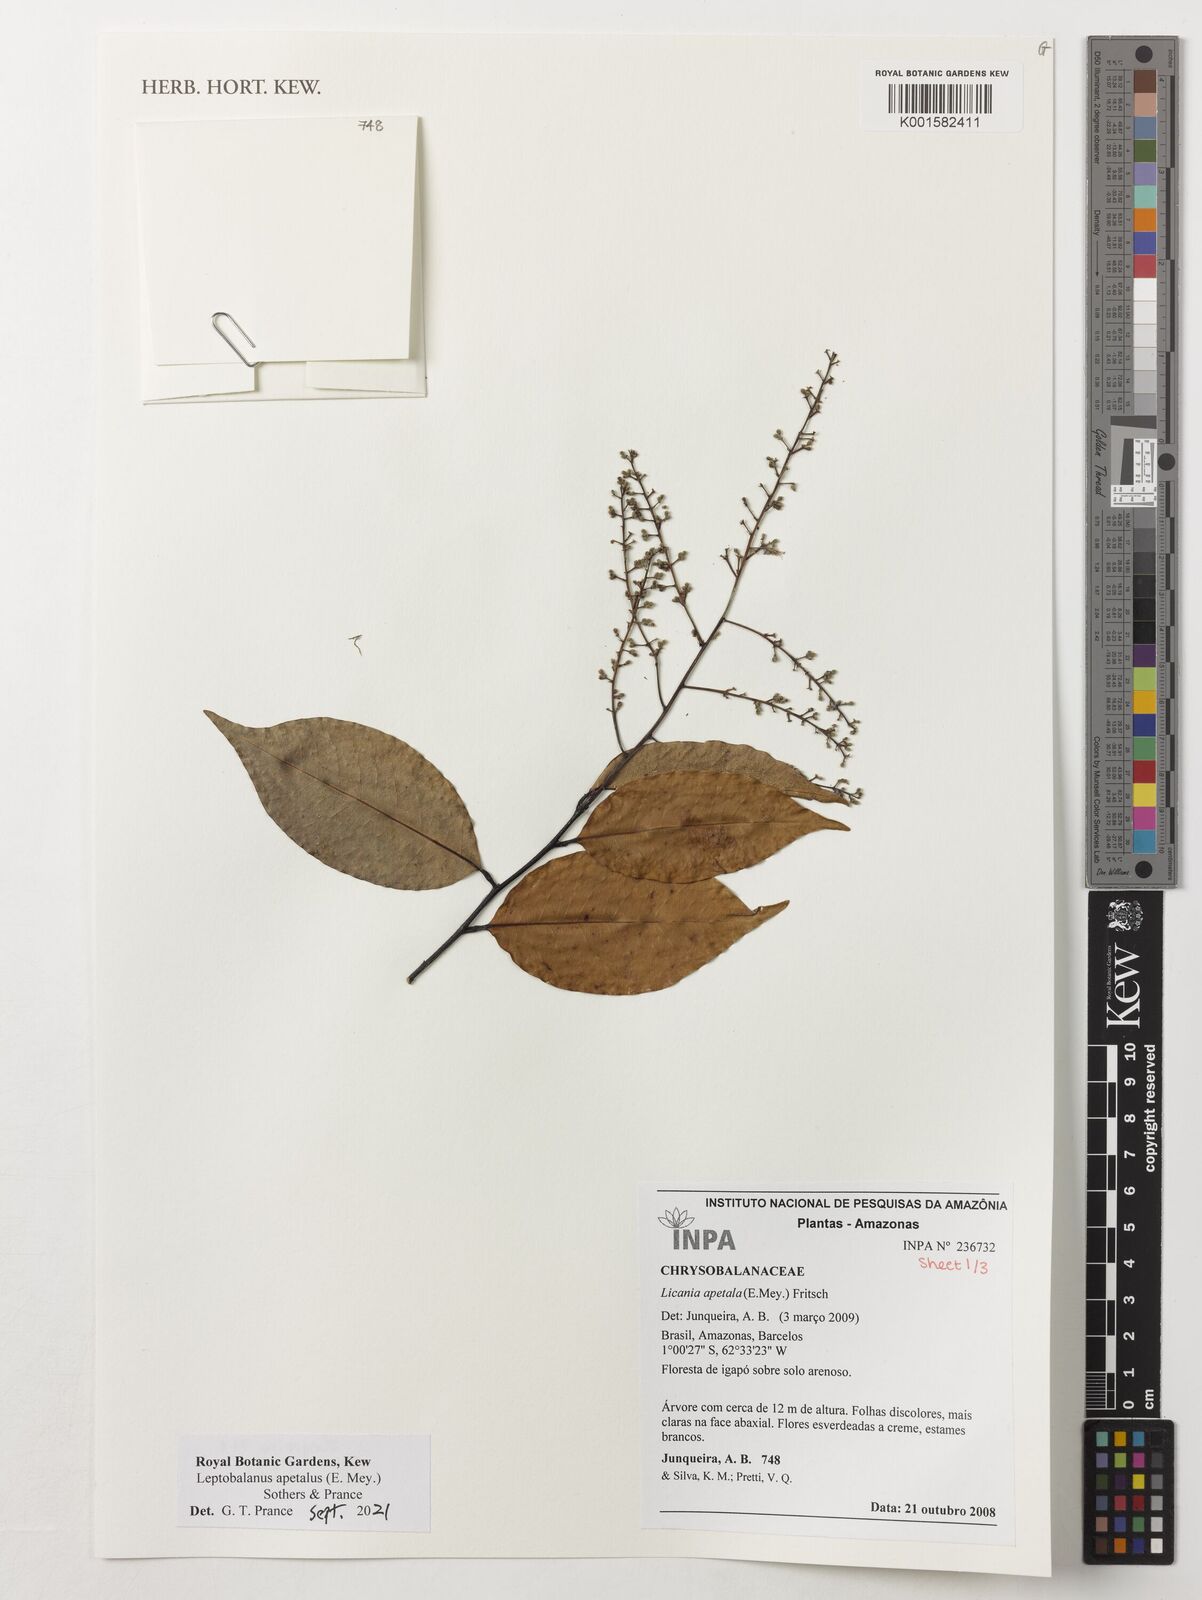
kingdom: Plantae
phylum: Tracheophyta
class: Magnoliopsida
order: Malpighiales
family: Chrysobalanaceae
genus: Leptobalanus
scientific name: Leptobalanus apetalus
